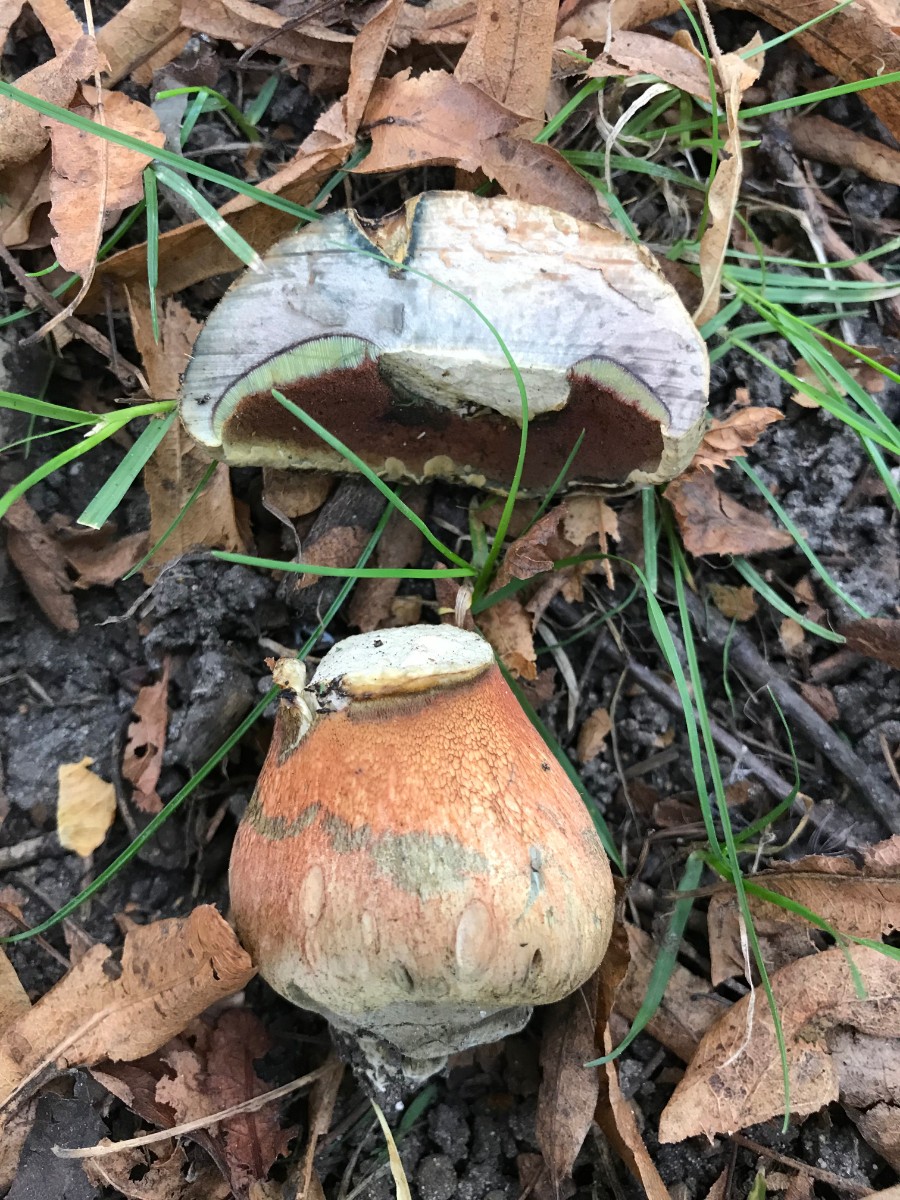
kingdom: Fungi
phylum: Basidiomycota
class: Agaricomycetes
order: Boletales
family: Boletaceae
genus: Suillellus
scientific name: Suillellus luridus
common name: netstokket indigorørhat
